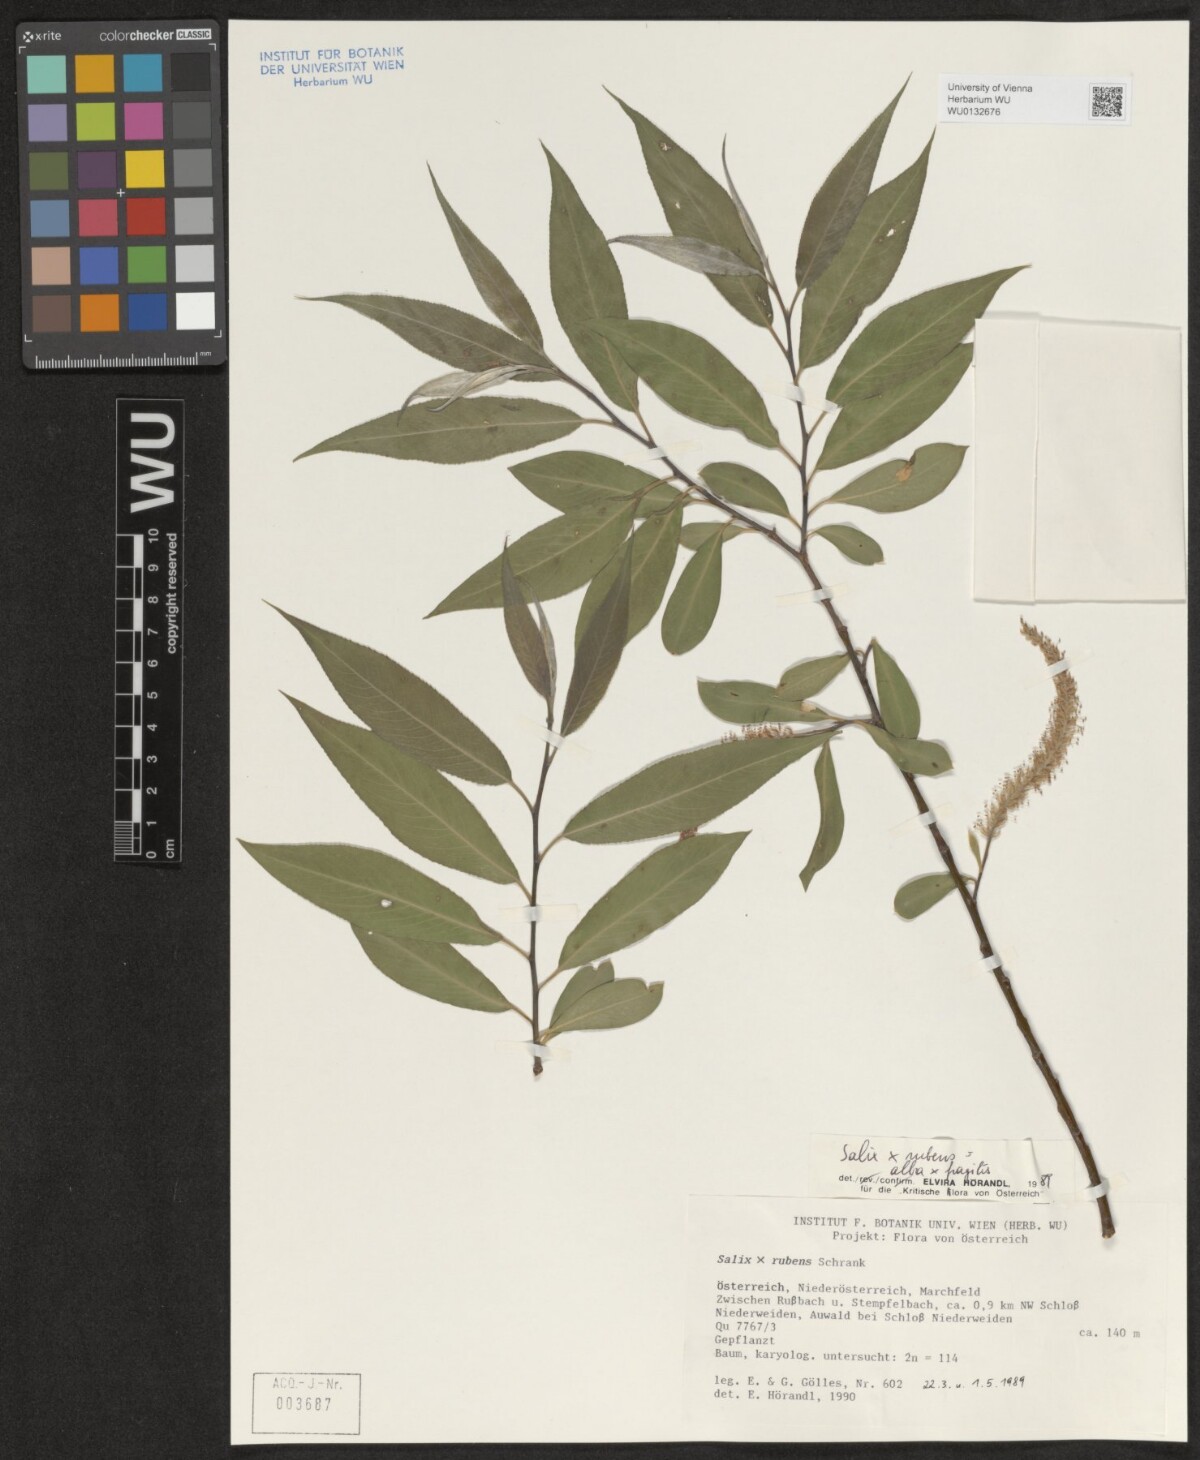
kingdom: Plantae
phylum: Tracheophyta
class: Magnoliopsida
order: Malpighiales
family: Salicaceae
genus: Salix
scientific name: Salix rubens
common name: Hybrid crack willow
